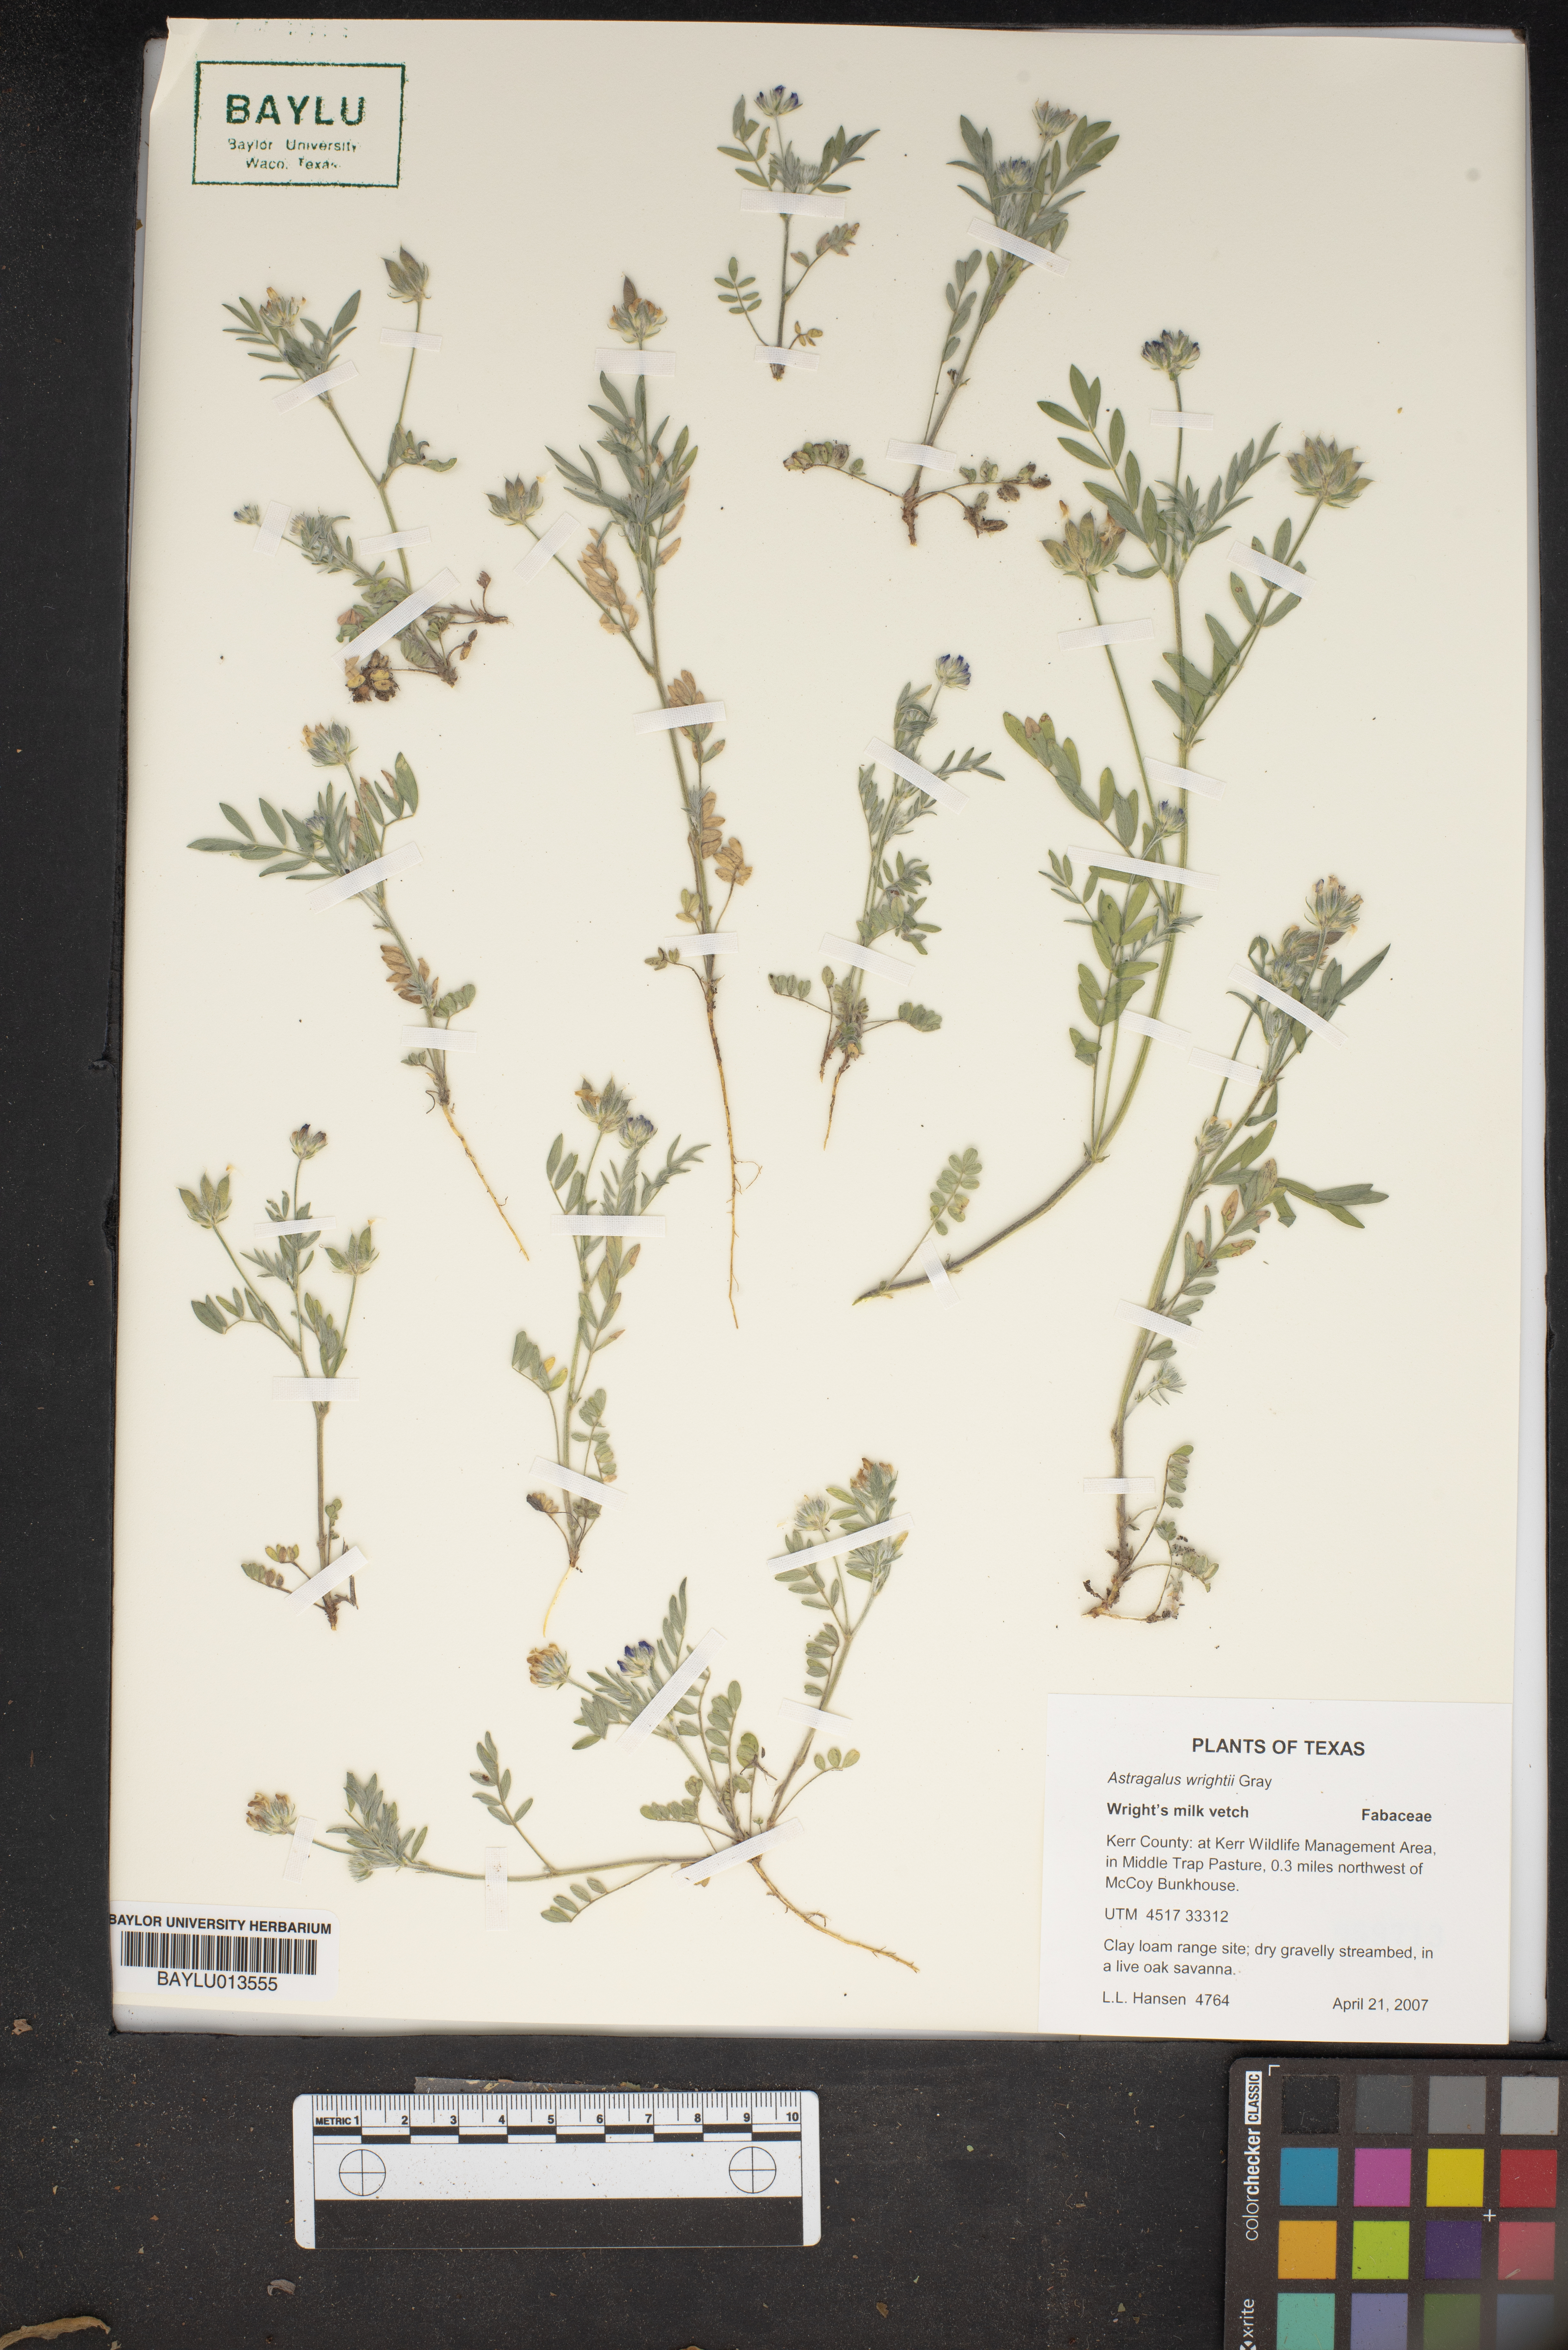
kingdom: Plantae
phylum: Tracheophyta
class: Magnoliopsida
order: Fabales
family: Fabaceae
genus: Astragalus
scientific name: Astragalus wrightii
